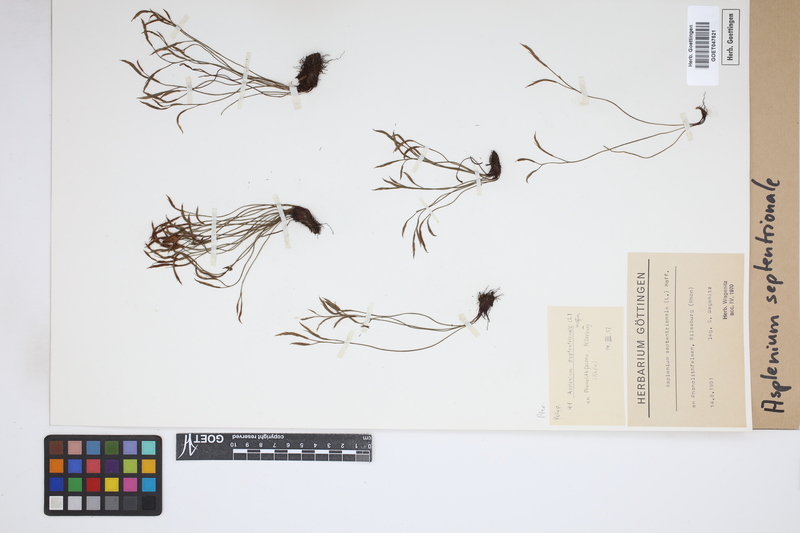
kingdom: Plantae
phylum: Tracheophyta
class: Polypodiopsida
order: Polypodiales
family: Aspleniaceae
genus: Asplenium
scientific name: Asplenium septentrionale
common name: Forked spleenwort
